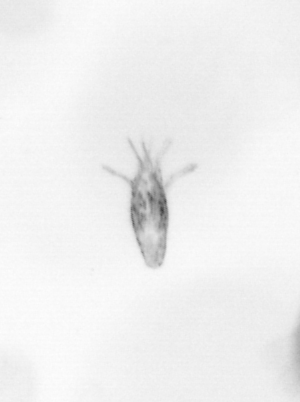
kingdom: Animalia
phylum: Arthropoda
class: Copepoda
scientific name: Copepoda
